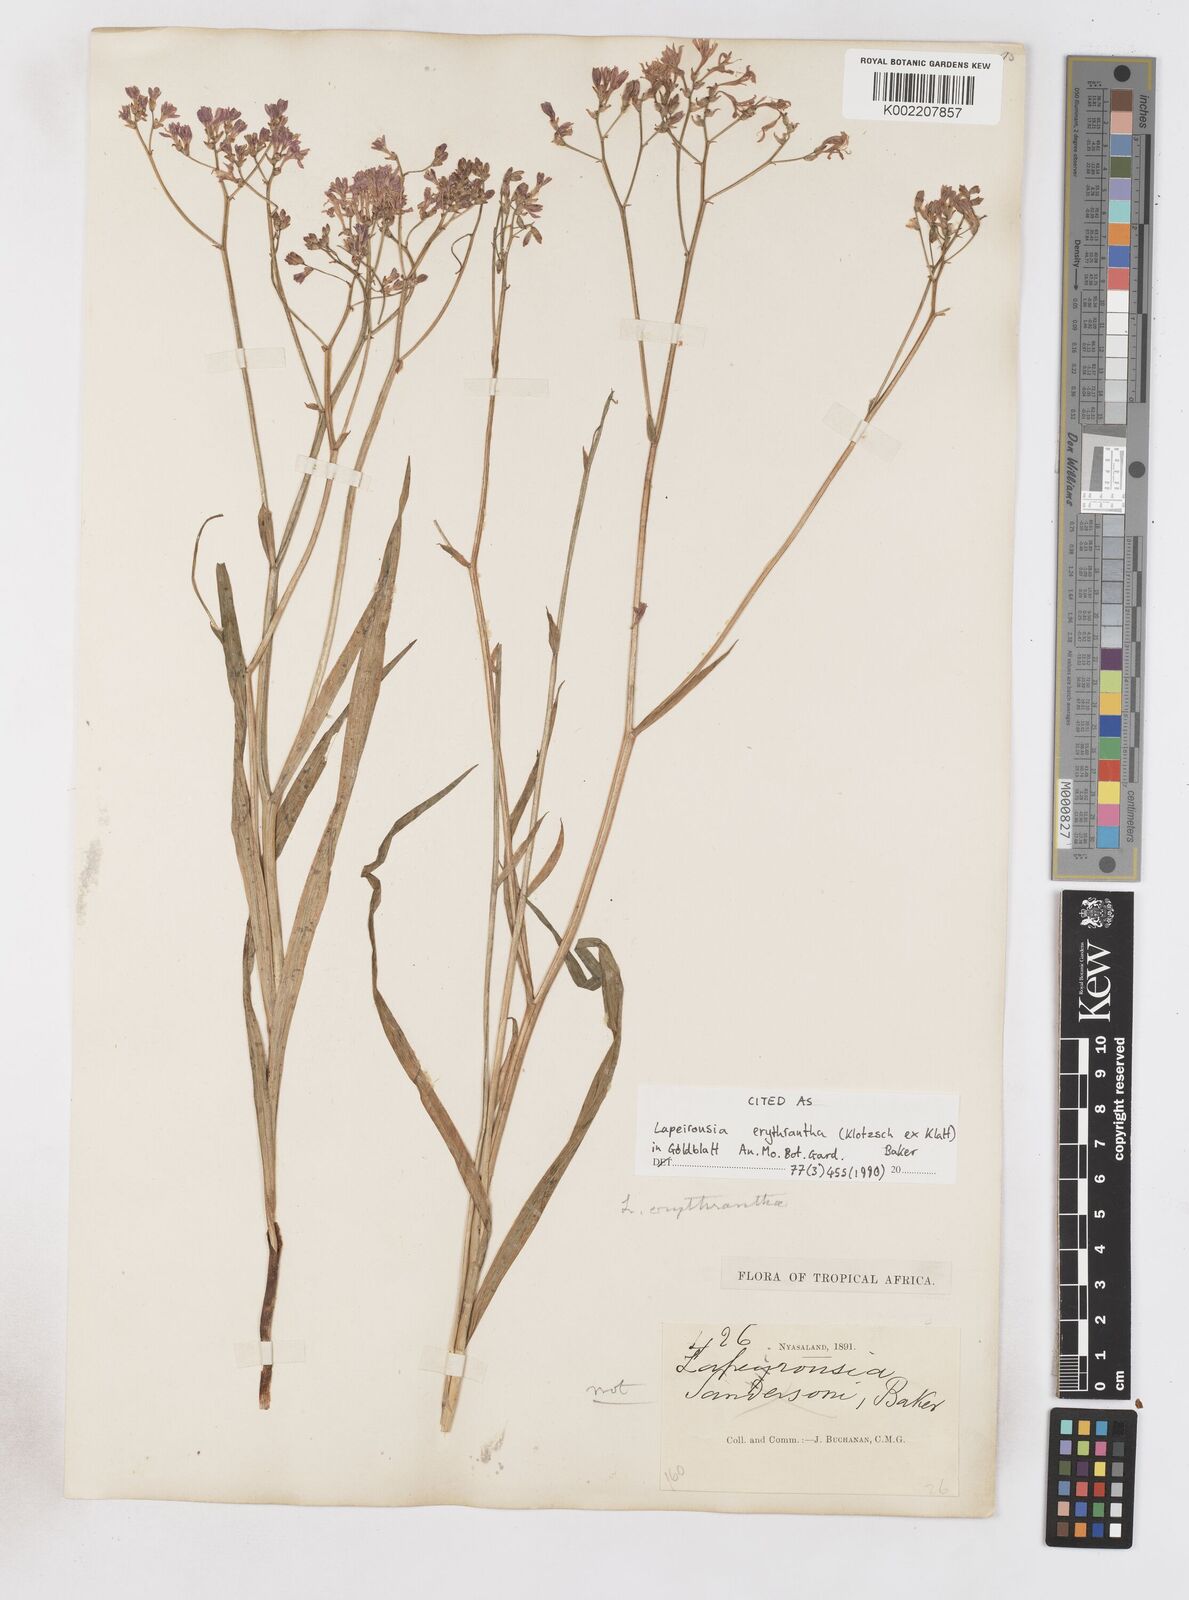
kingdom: Plantae
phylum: Tracheophyta
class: Liliopsida
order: Asparagales
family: Iridaceae
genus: Afrosolen
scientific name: Afrosolen erythranthus
